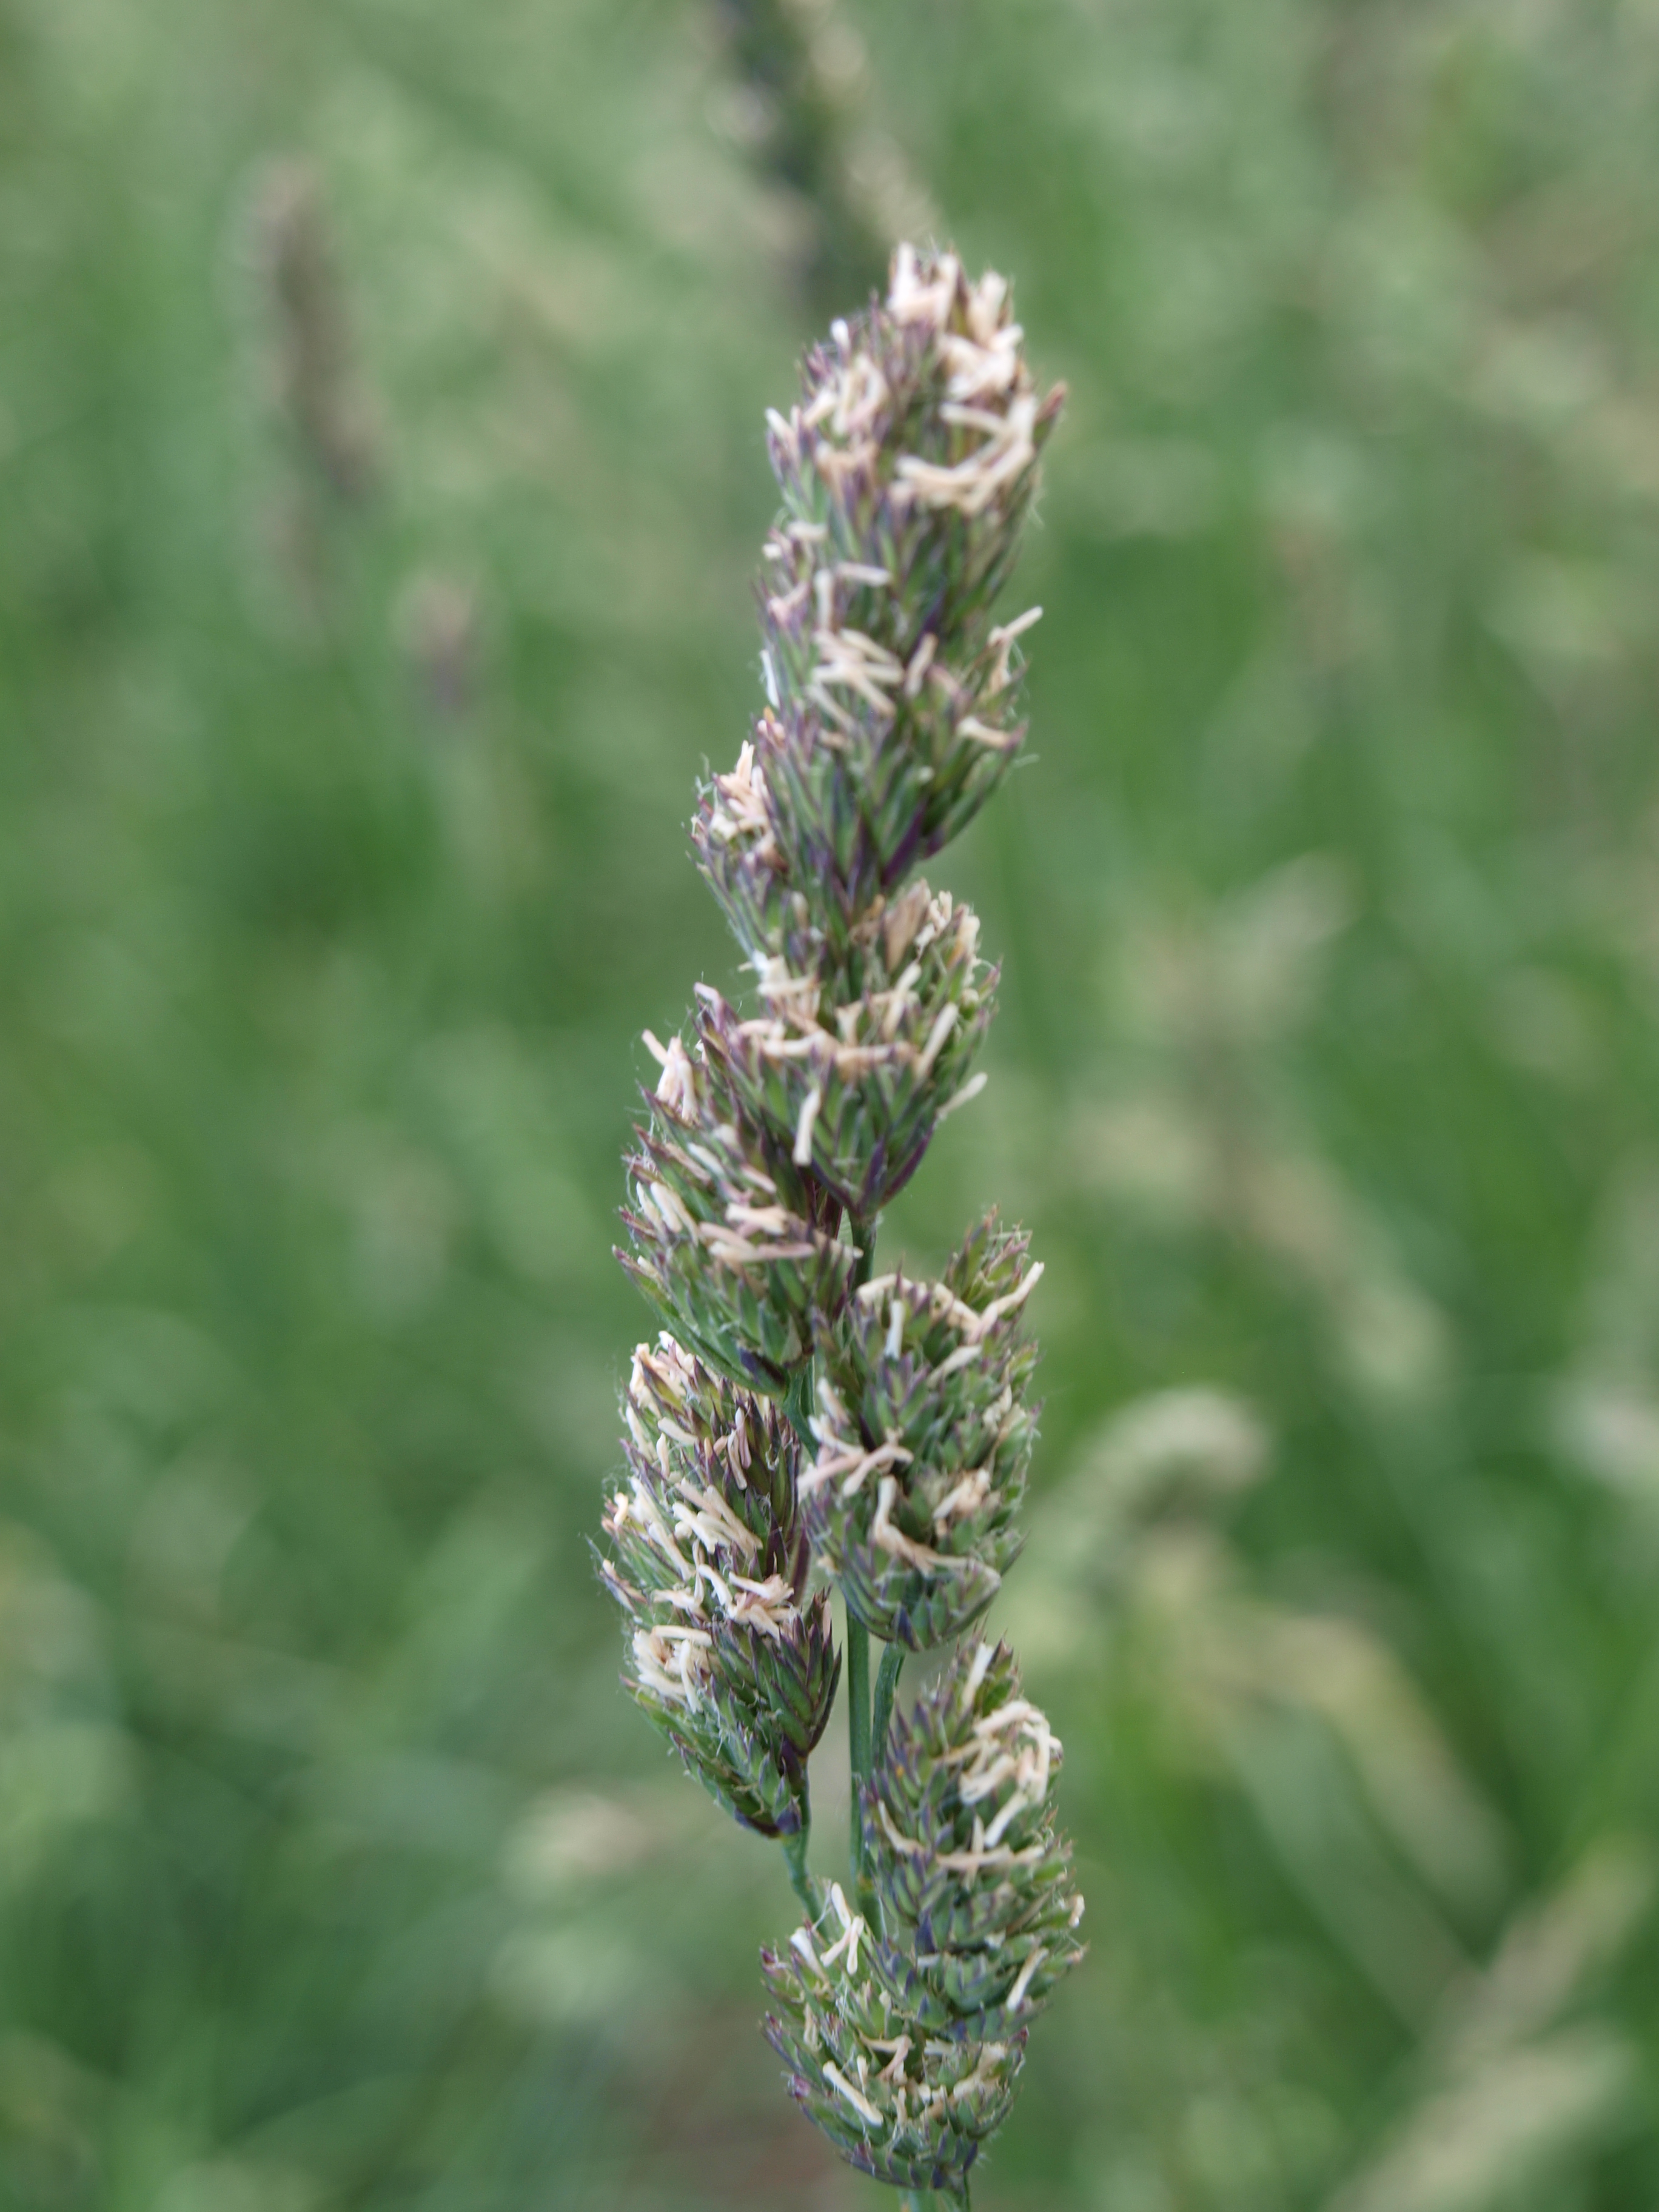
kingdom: Plantae
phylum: Tracheophyta
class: Liliopsida
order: Poales
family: Poaceae
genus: Dactylis
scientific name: Dactylis glomerata
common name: Orchardgrass
